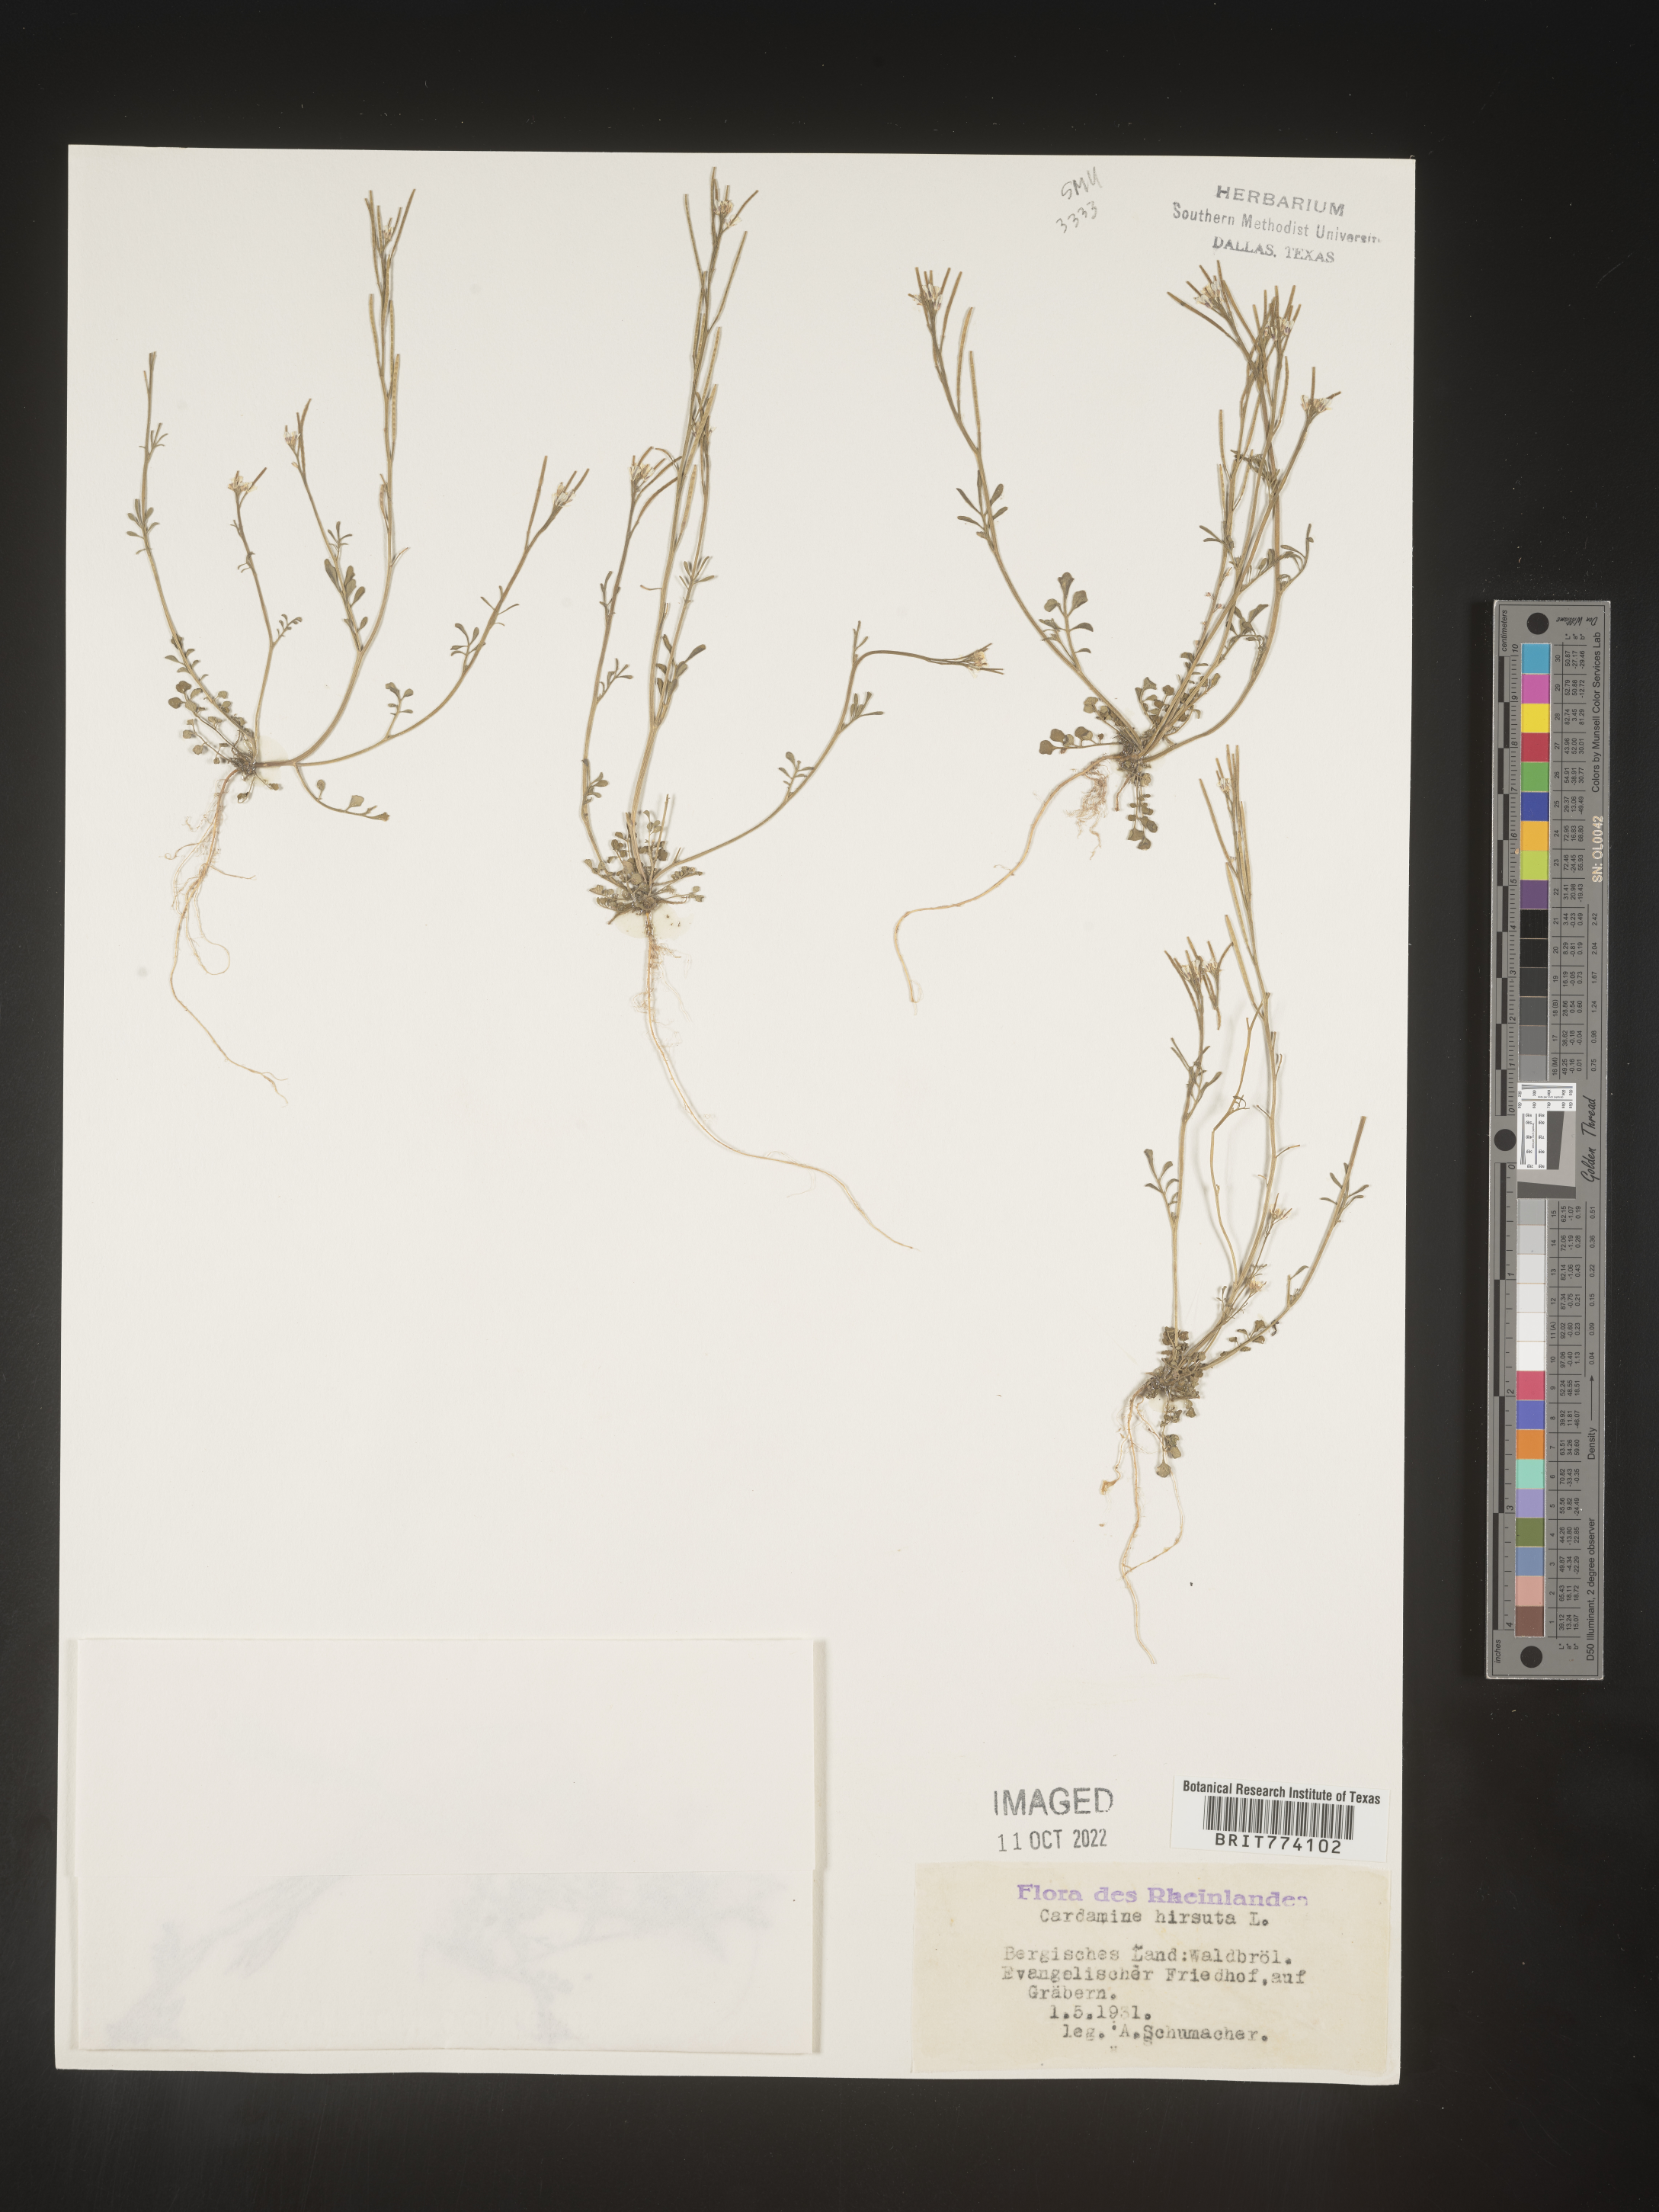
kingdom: Plantae
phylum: Tracheophyta
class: Magnoliopsida
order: Brassicales
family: Brassicaceae
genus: Cardamine
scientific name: Cardamine hirsuta
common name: Hairy bittercress
